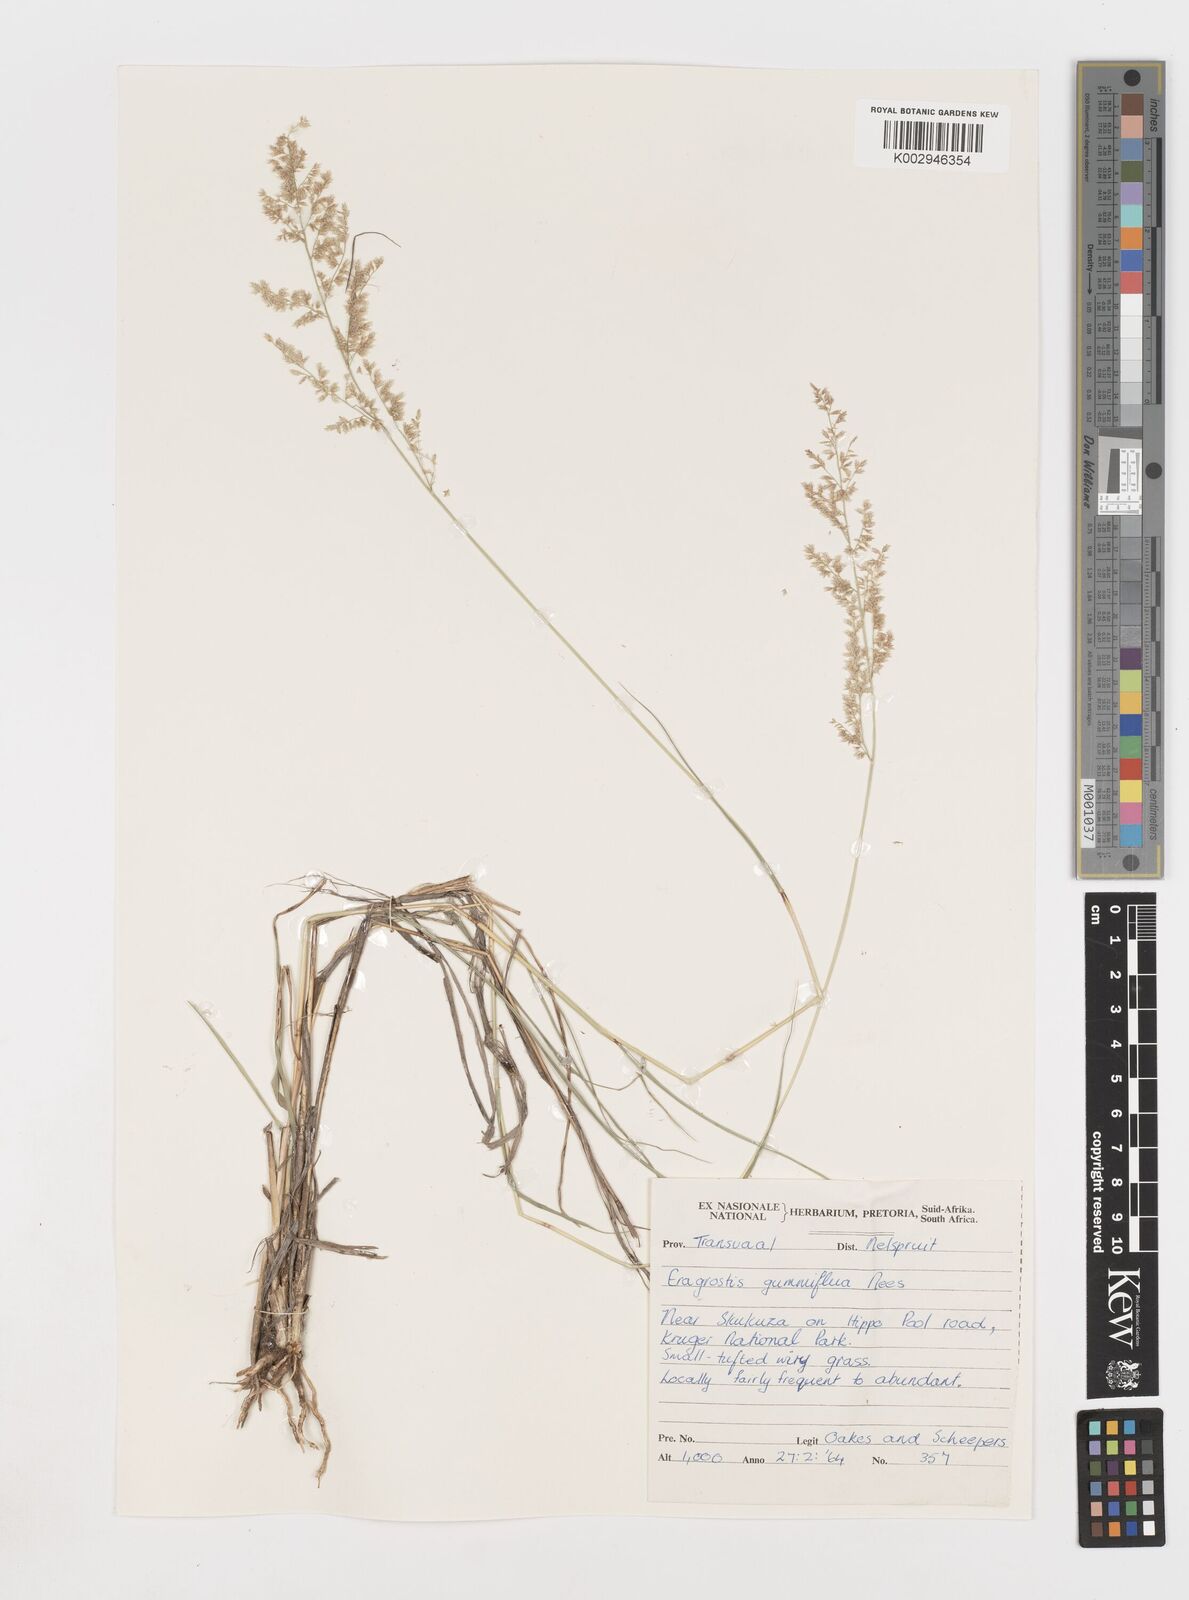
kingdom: Plantae
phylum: Tracheophyta
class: Liliopsida
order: Poales
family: Poaceae
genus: Eragrostis
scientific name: Eragrostis gummiflua
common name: Gum grass
